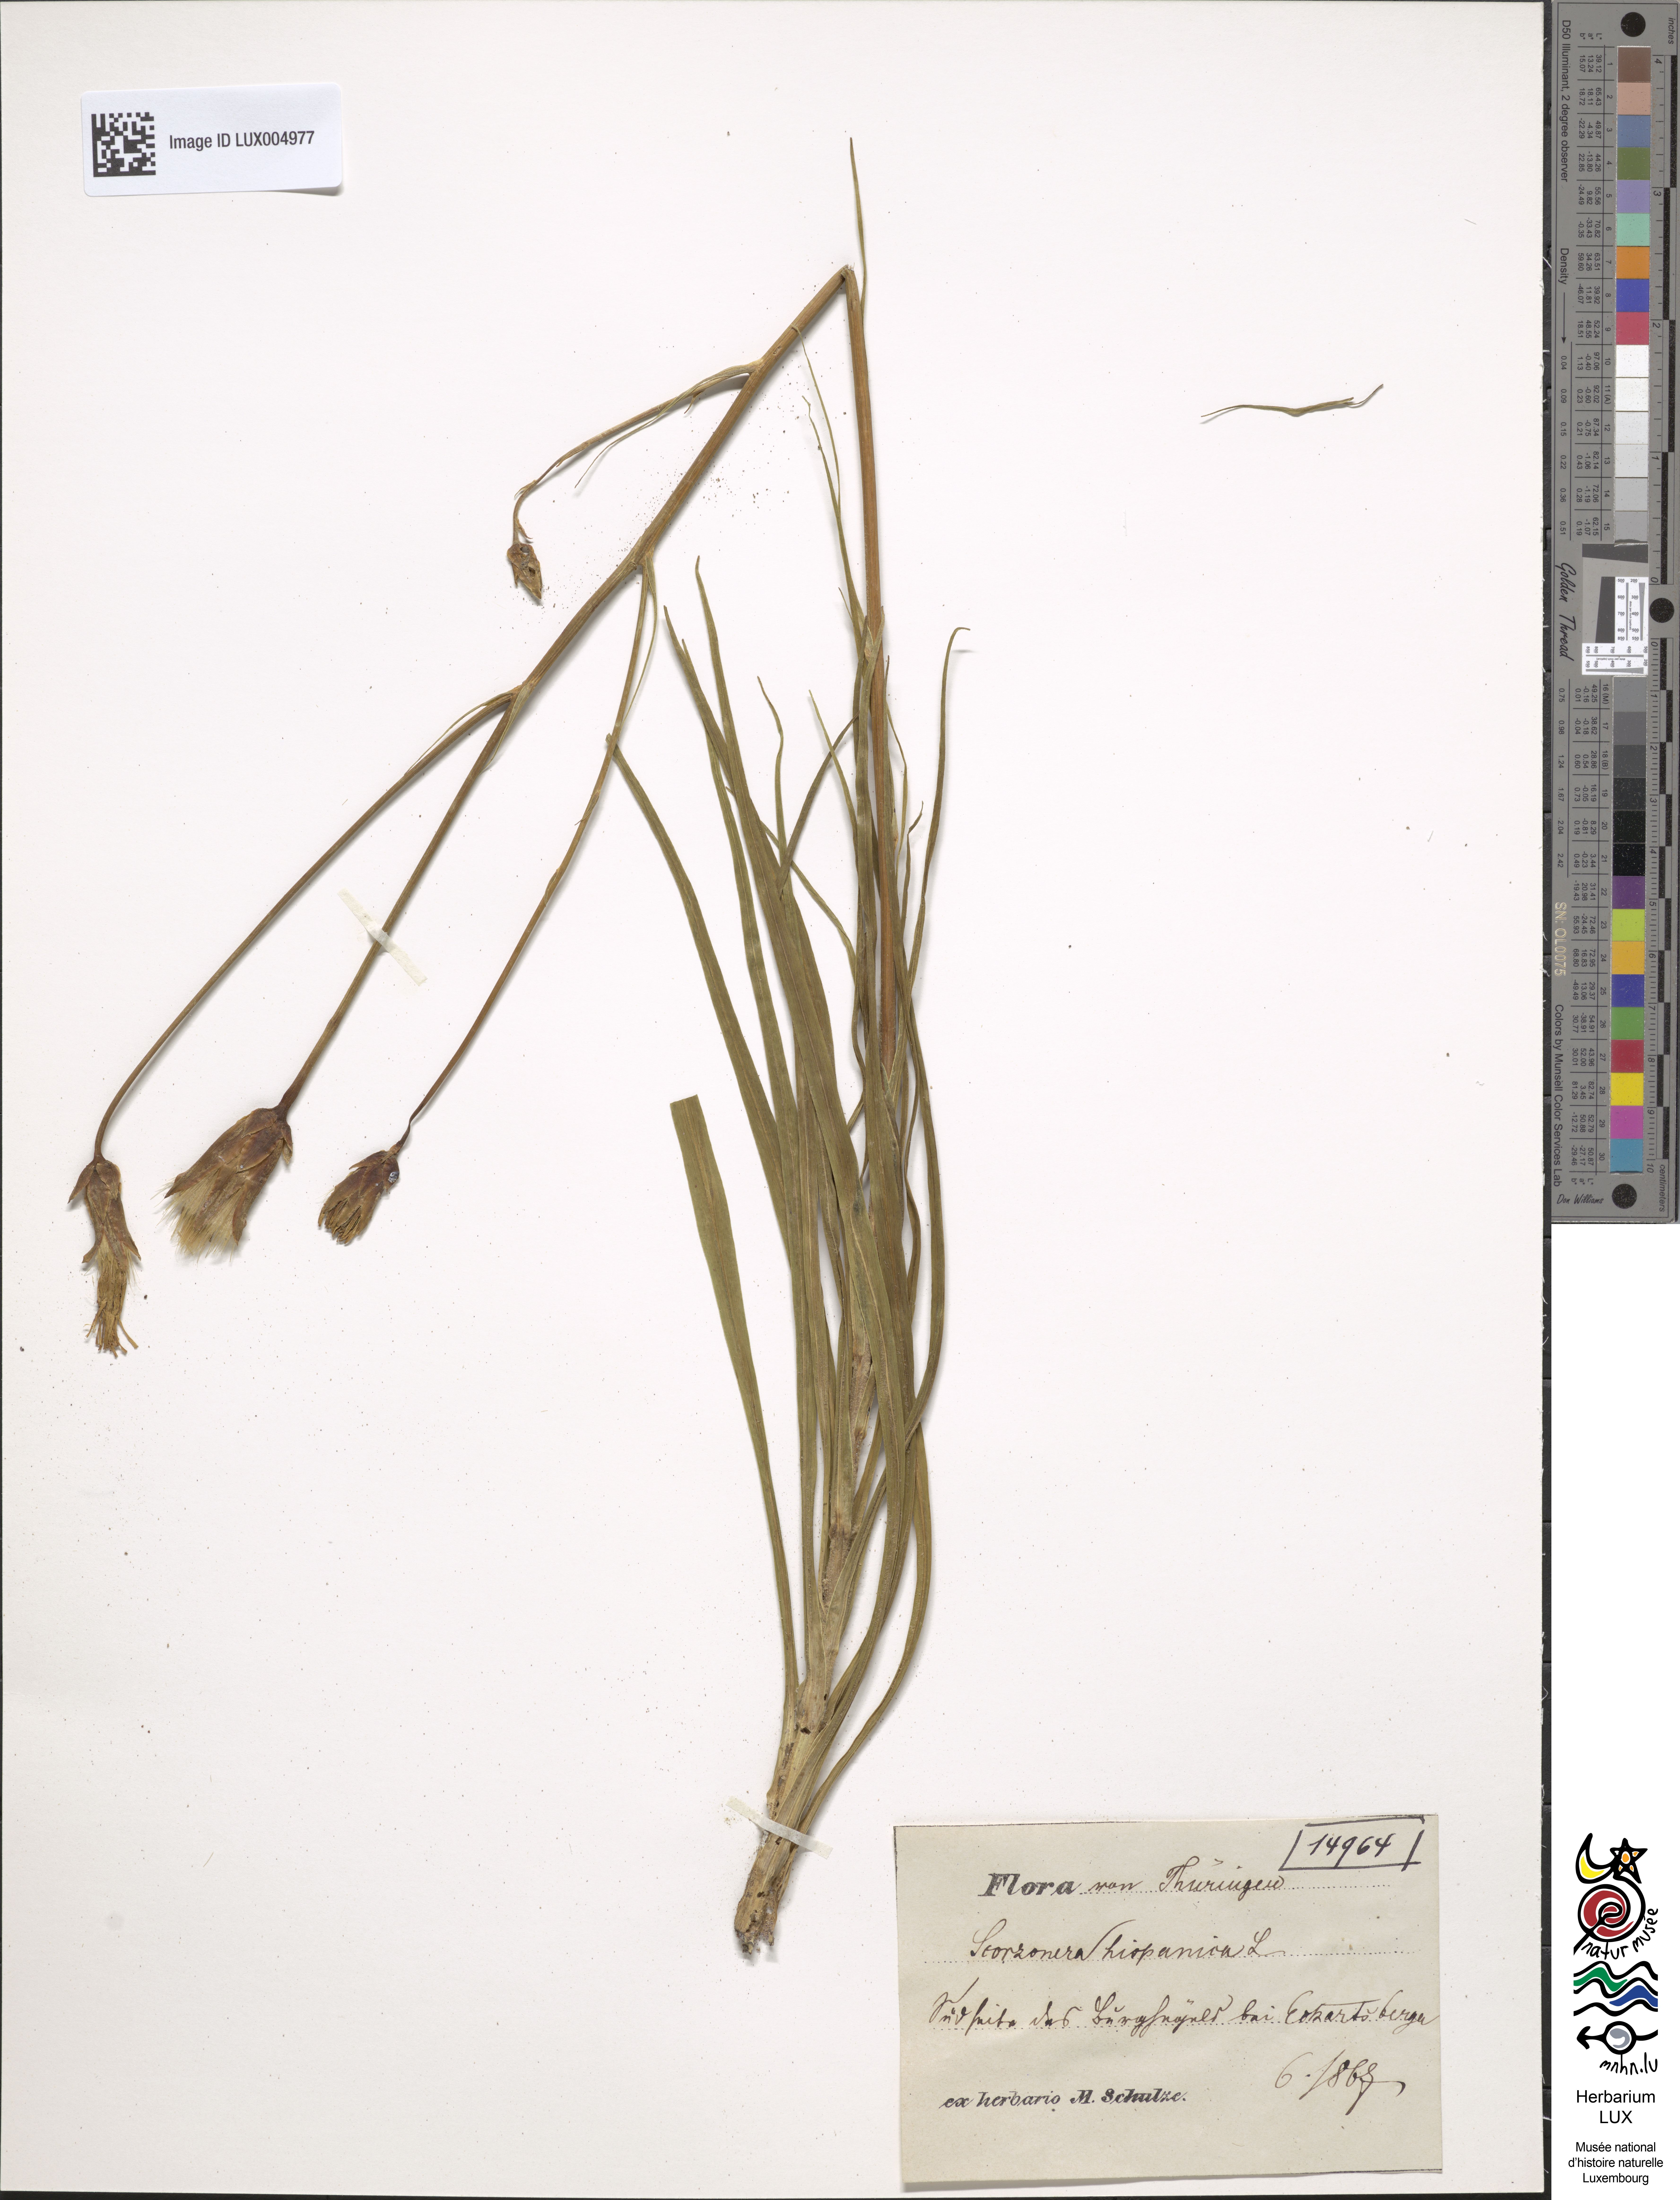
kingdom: Plantae
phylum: Tracheophyta
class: Magnoliopsida
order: Asterales
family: Asteraceae
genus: Pseudopodospermum
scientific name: Pseudopodospermum hispanicum
